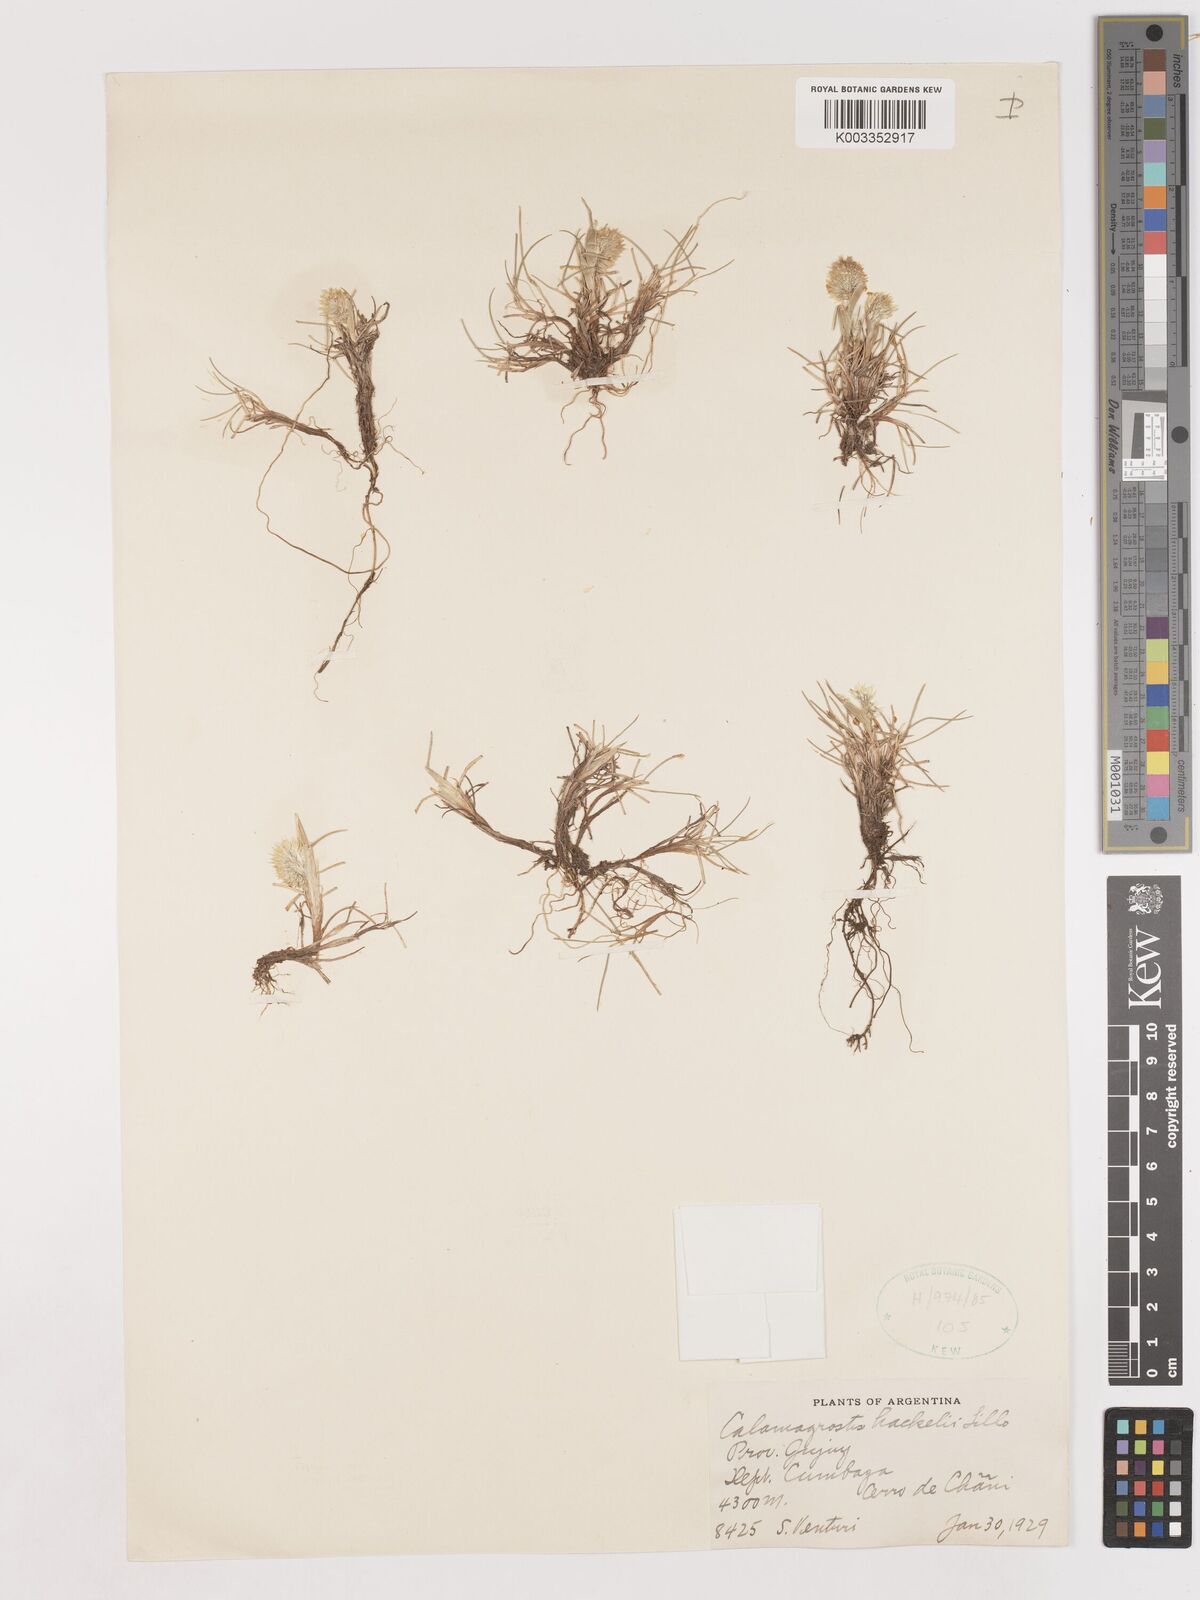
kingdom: Plantae
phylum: Tracheophyta
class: Liliopsida
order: Poales
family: Poaceae
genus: Deschampsia
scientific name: Deschampsia hackelii
